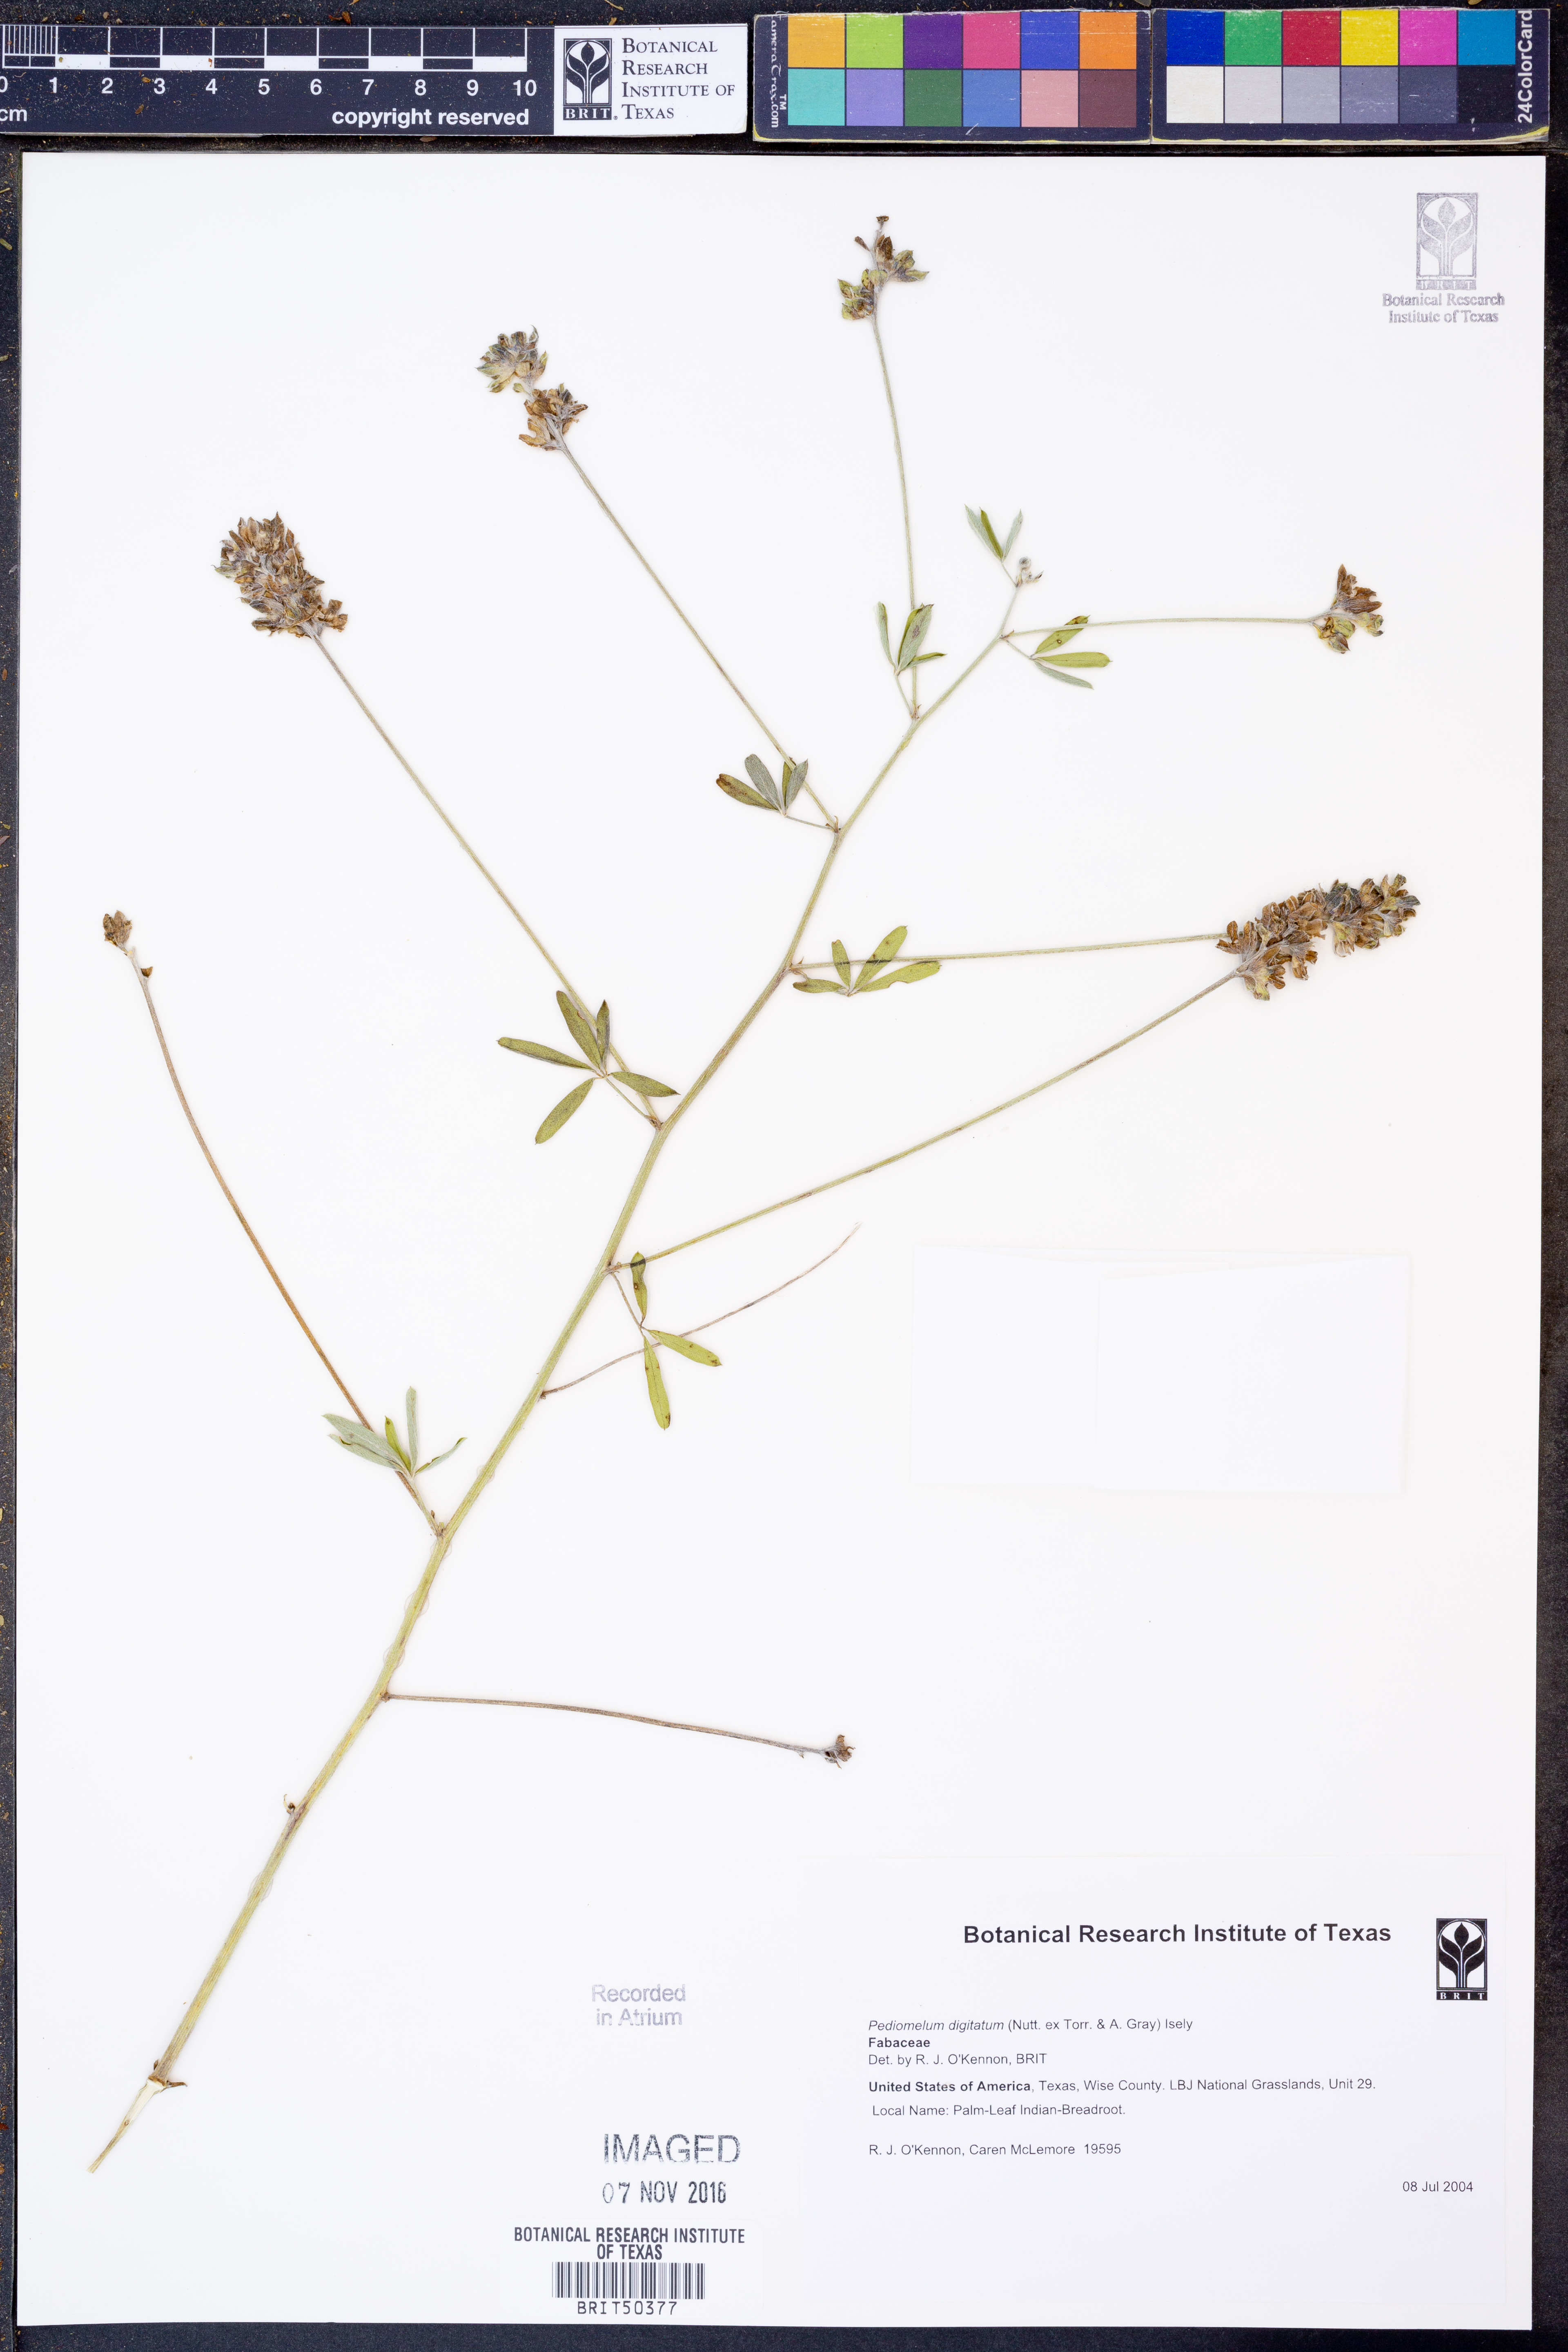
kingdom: Plantae
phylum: Tracheophyta
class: Magnoliopsida
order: Fabales
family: Fabaceae
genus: Pediomelum
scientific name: Pediomelum digitatum
